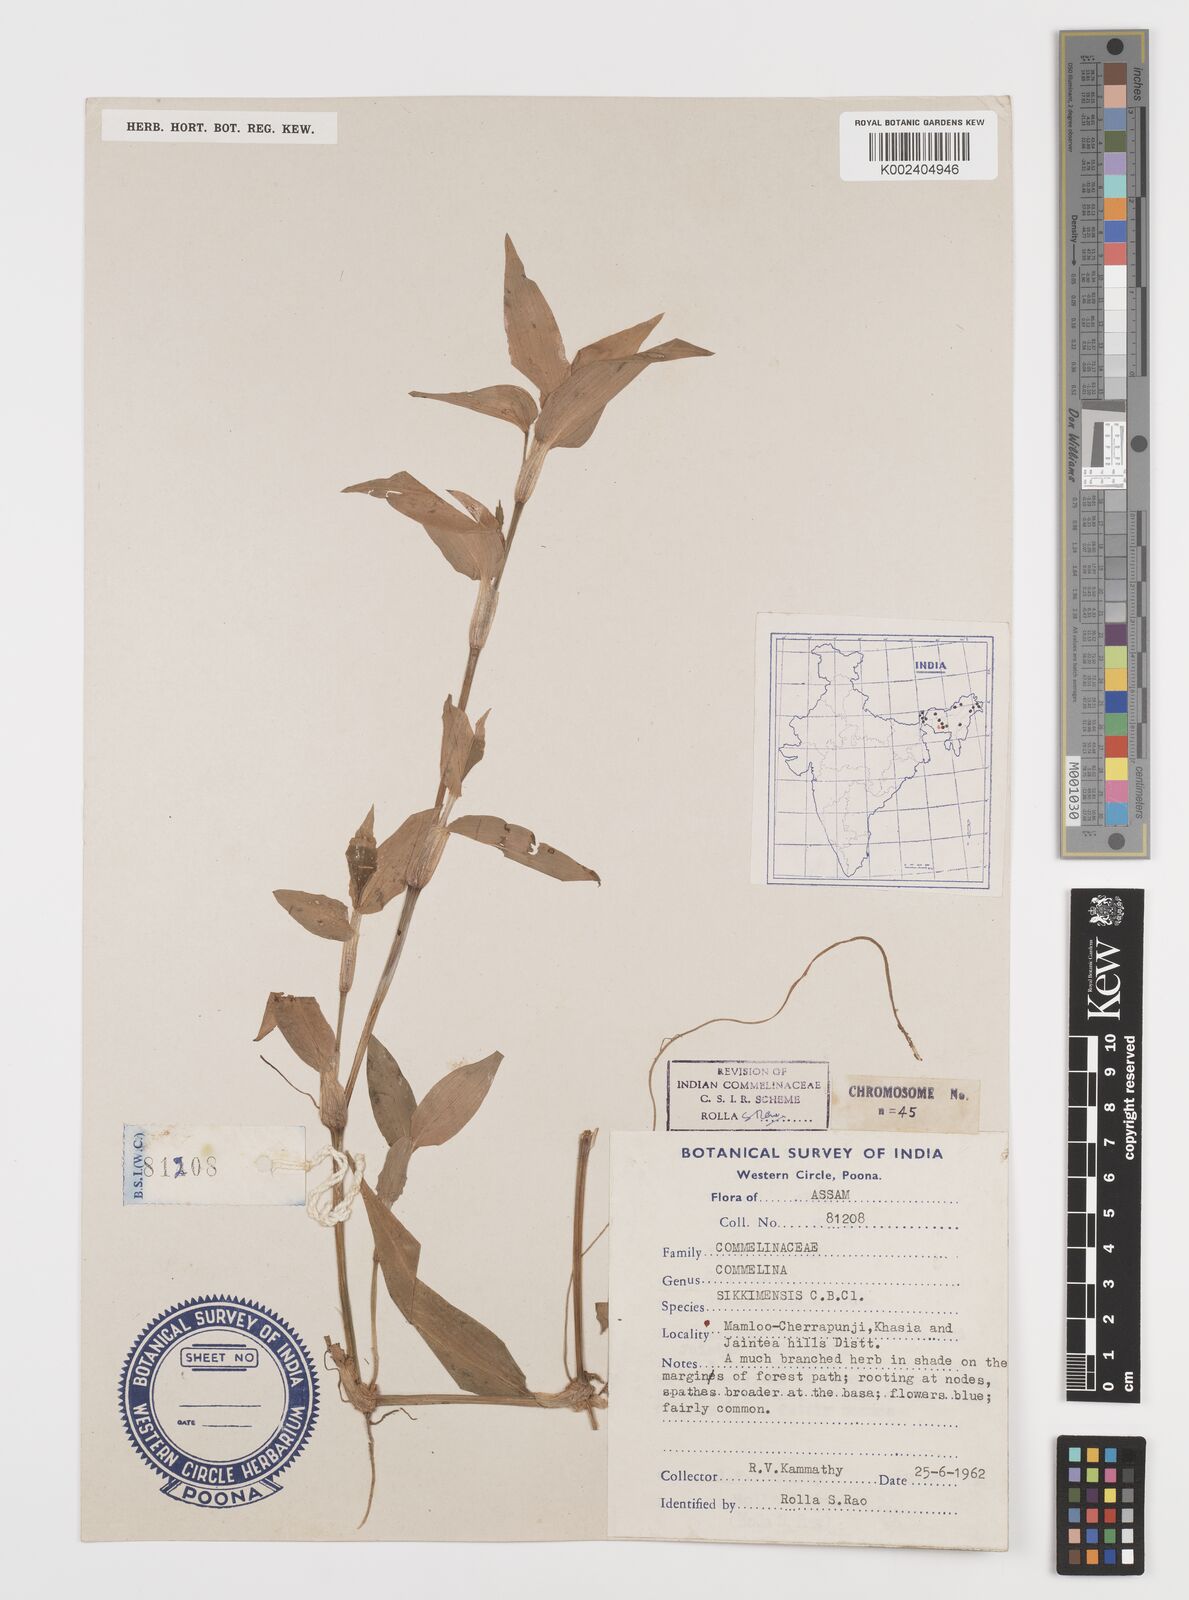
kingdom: Plantae
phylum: Tracheophyta
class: Liliopsida
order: Commelinales
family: Commelinaceae
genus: Commelina
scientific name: Commelina sikkimensis
